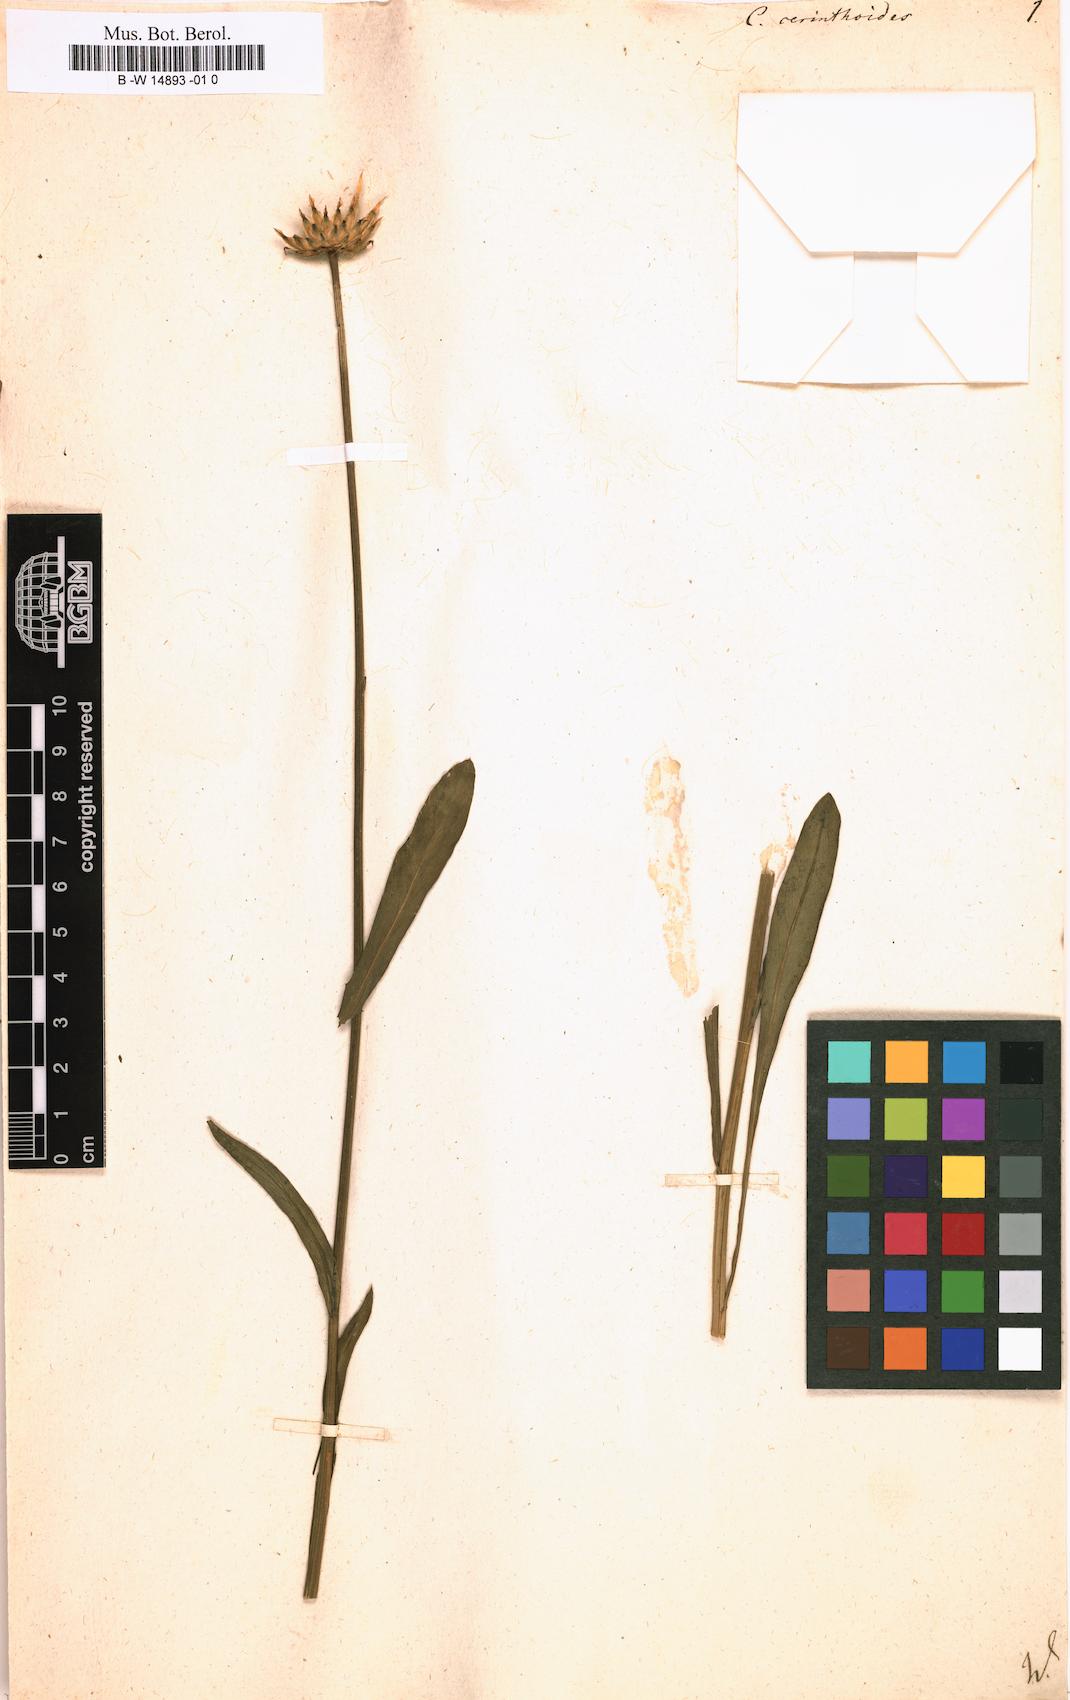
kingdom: Plantae
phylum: Tracheophyta
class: Magnoliopsida
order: Asterales
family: Asteraceae
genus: Klasea
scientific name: Klasea nudicaulis
